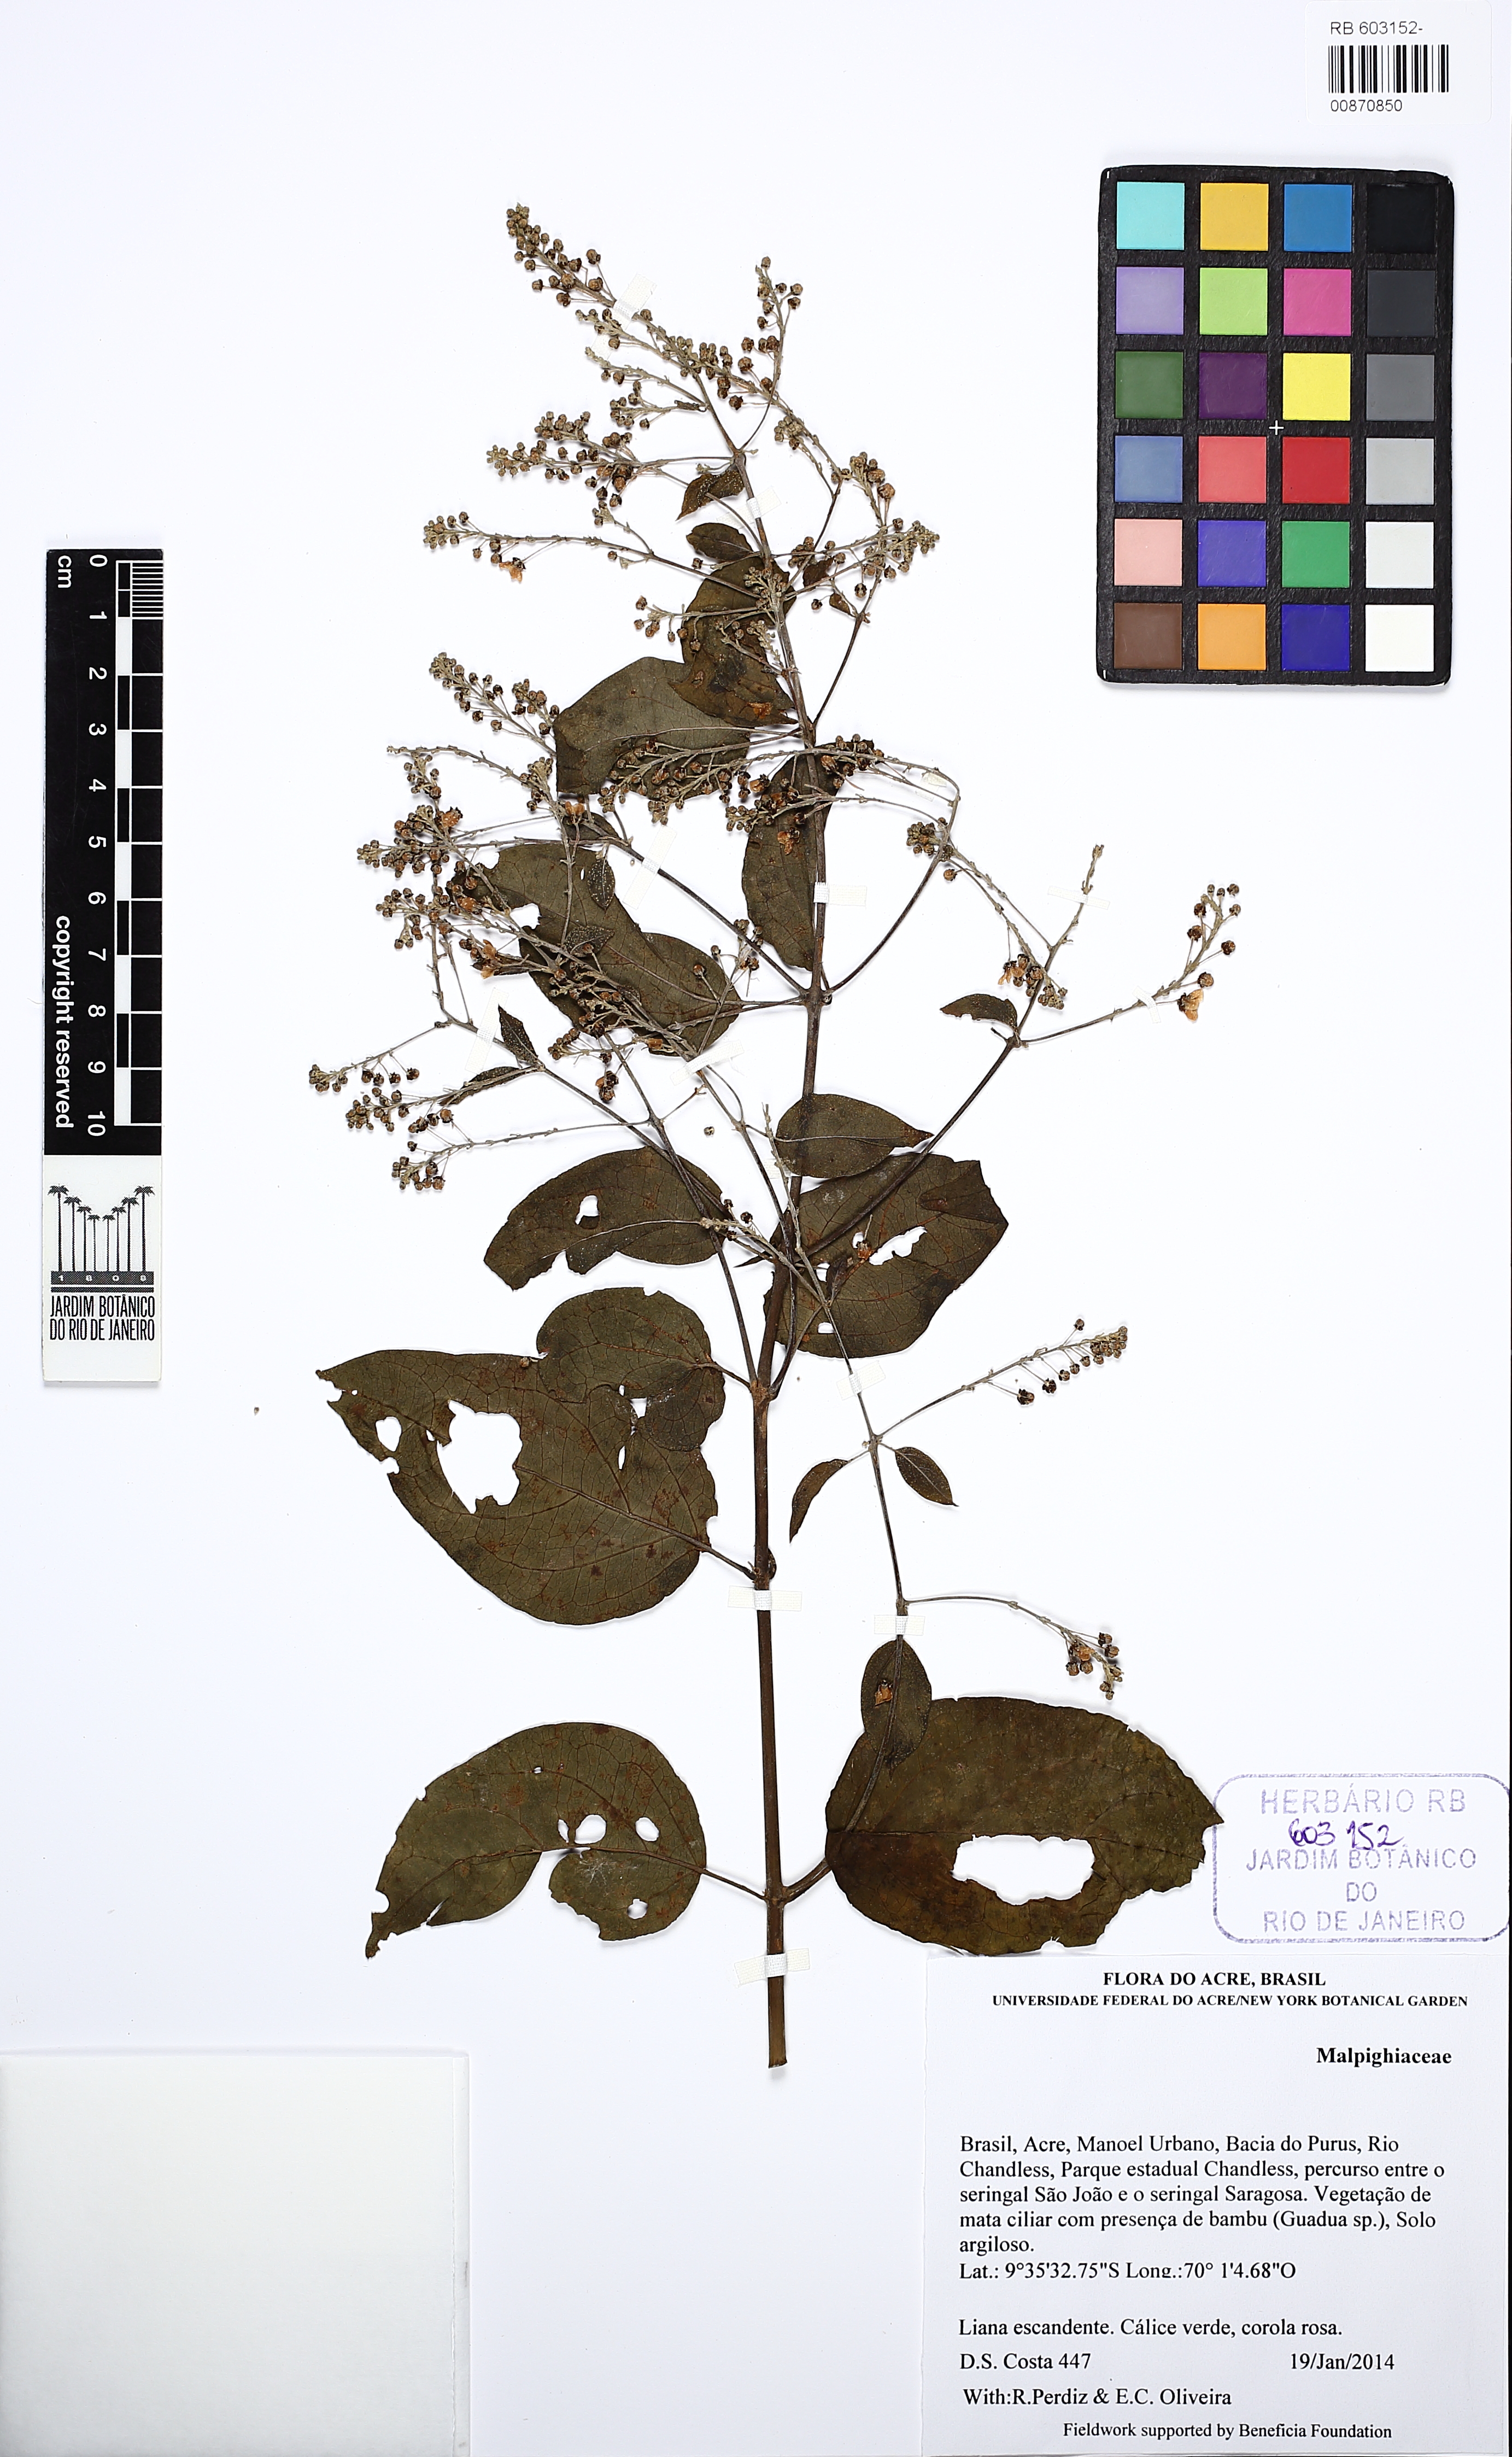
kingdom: Plantae
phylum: Tracheophyta
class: Magnoliopsida
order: Malpighiales
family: Malpighiaceae
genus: Mascagnia
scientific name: Mascagnia ovatifolia
